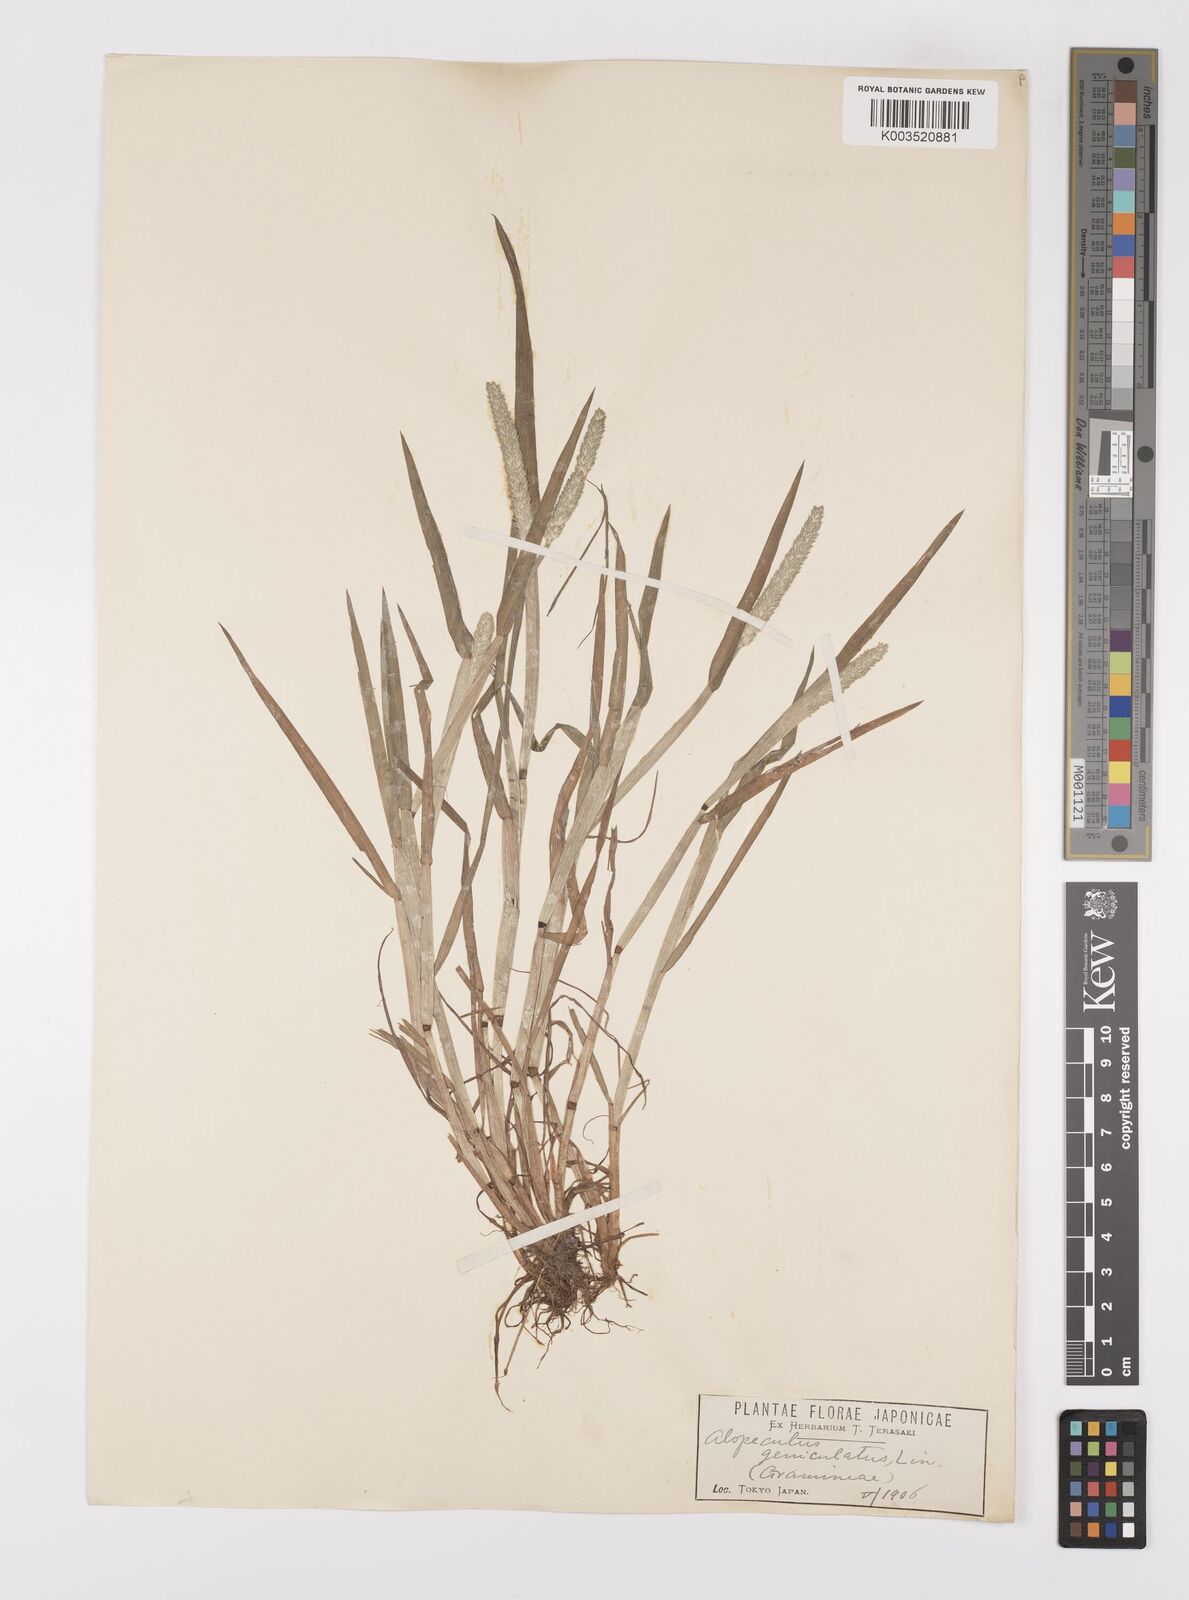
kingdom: Plantae
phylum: Tracheophyta
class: Liliopsida
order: Poales
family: Poaceae
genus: Alopecurus
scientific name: Alopecurus aequalis
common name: Orange foxtail
